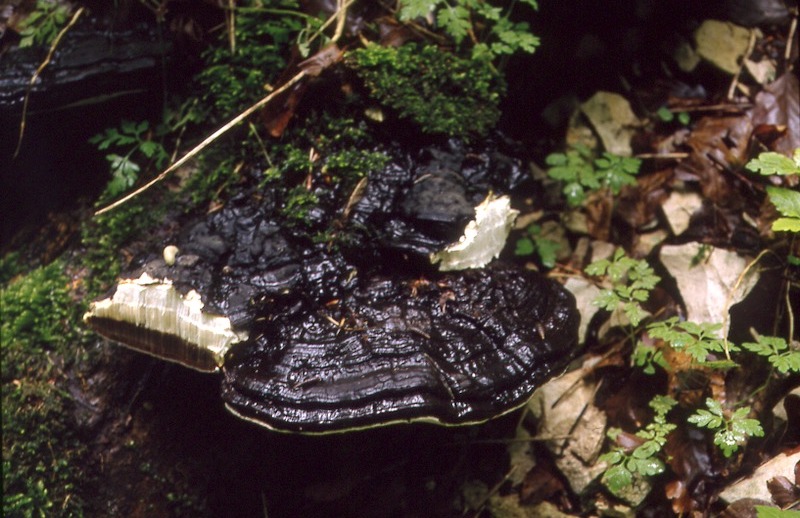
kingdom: Fungi
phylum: Basidiomycota
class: Agaricomycetes
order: Polyporales
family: Polyporaceae
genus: Ganoderma
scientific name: Ganoderma applanatum
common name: Artist's bracket
